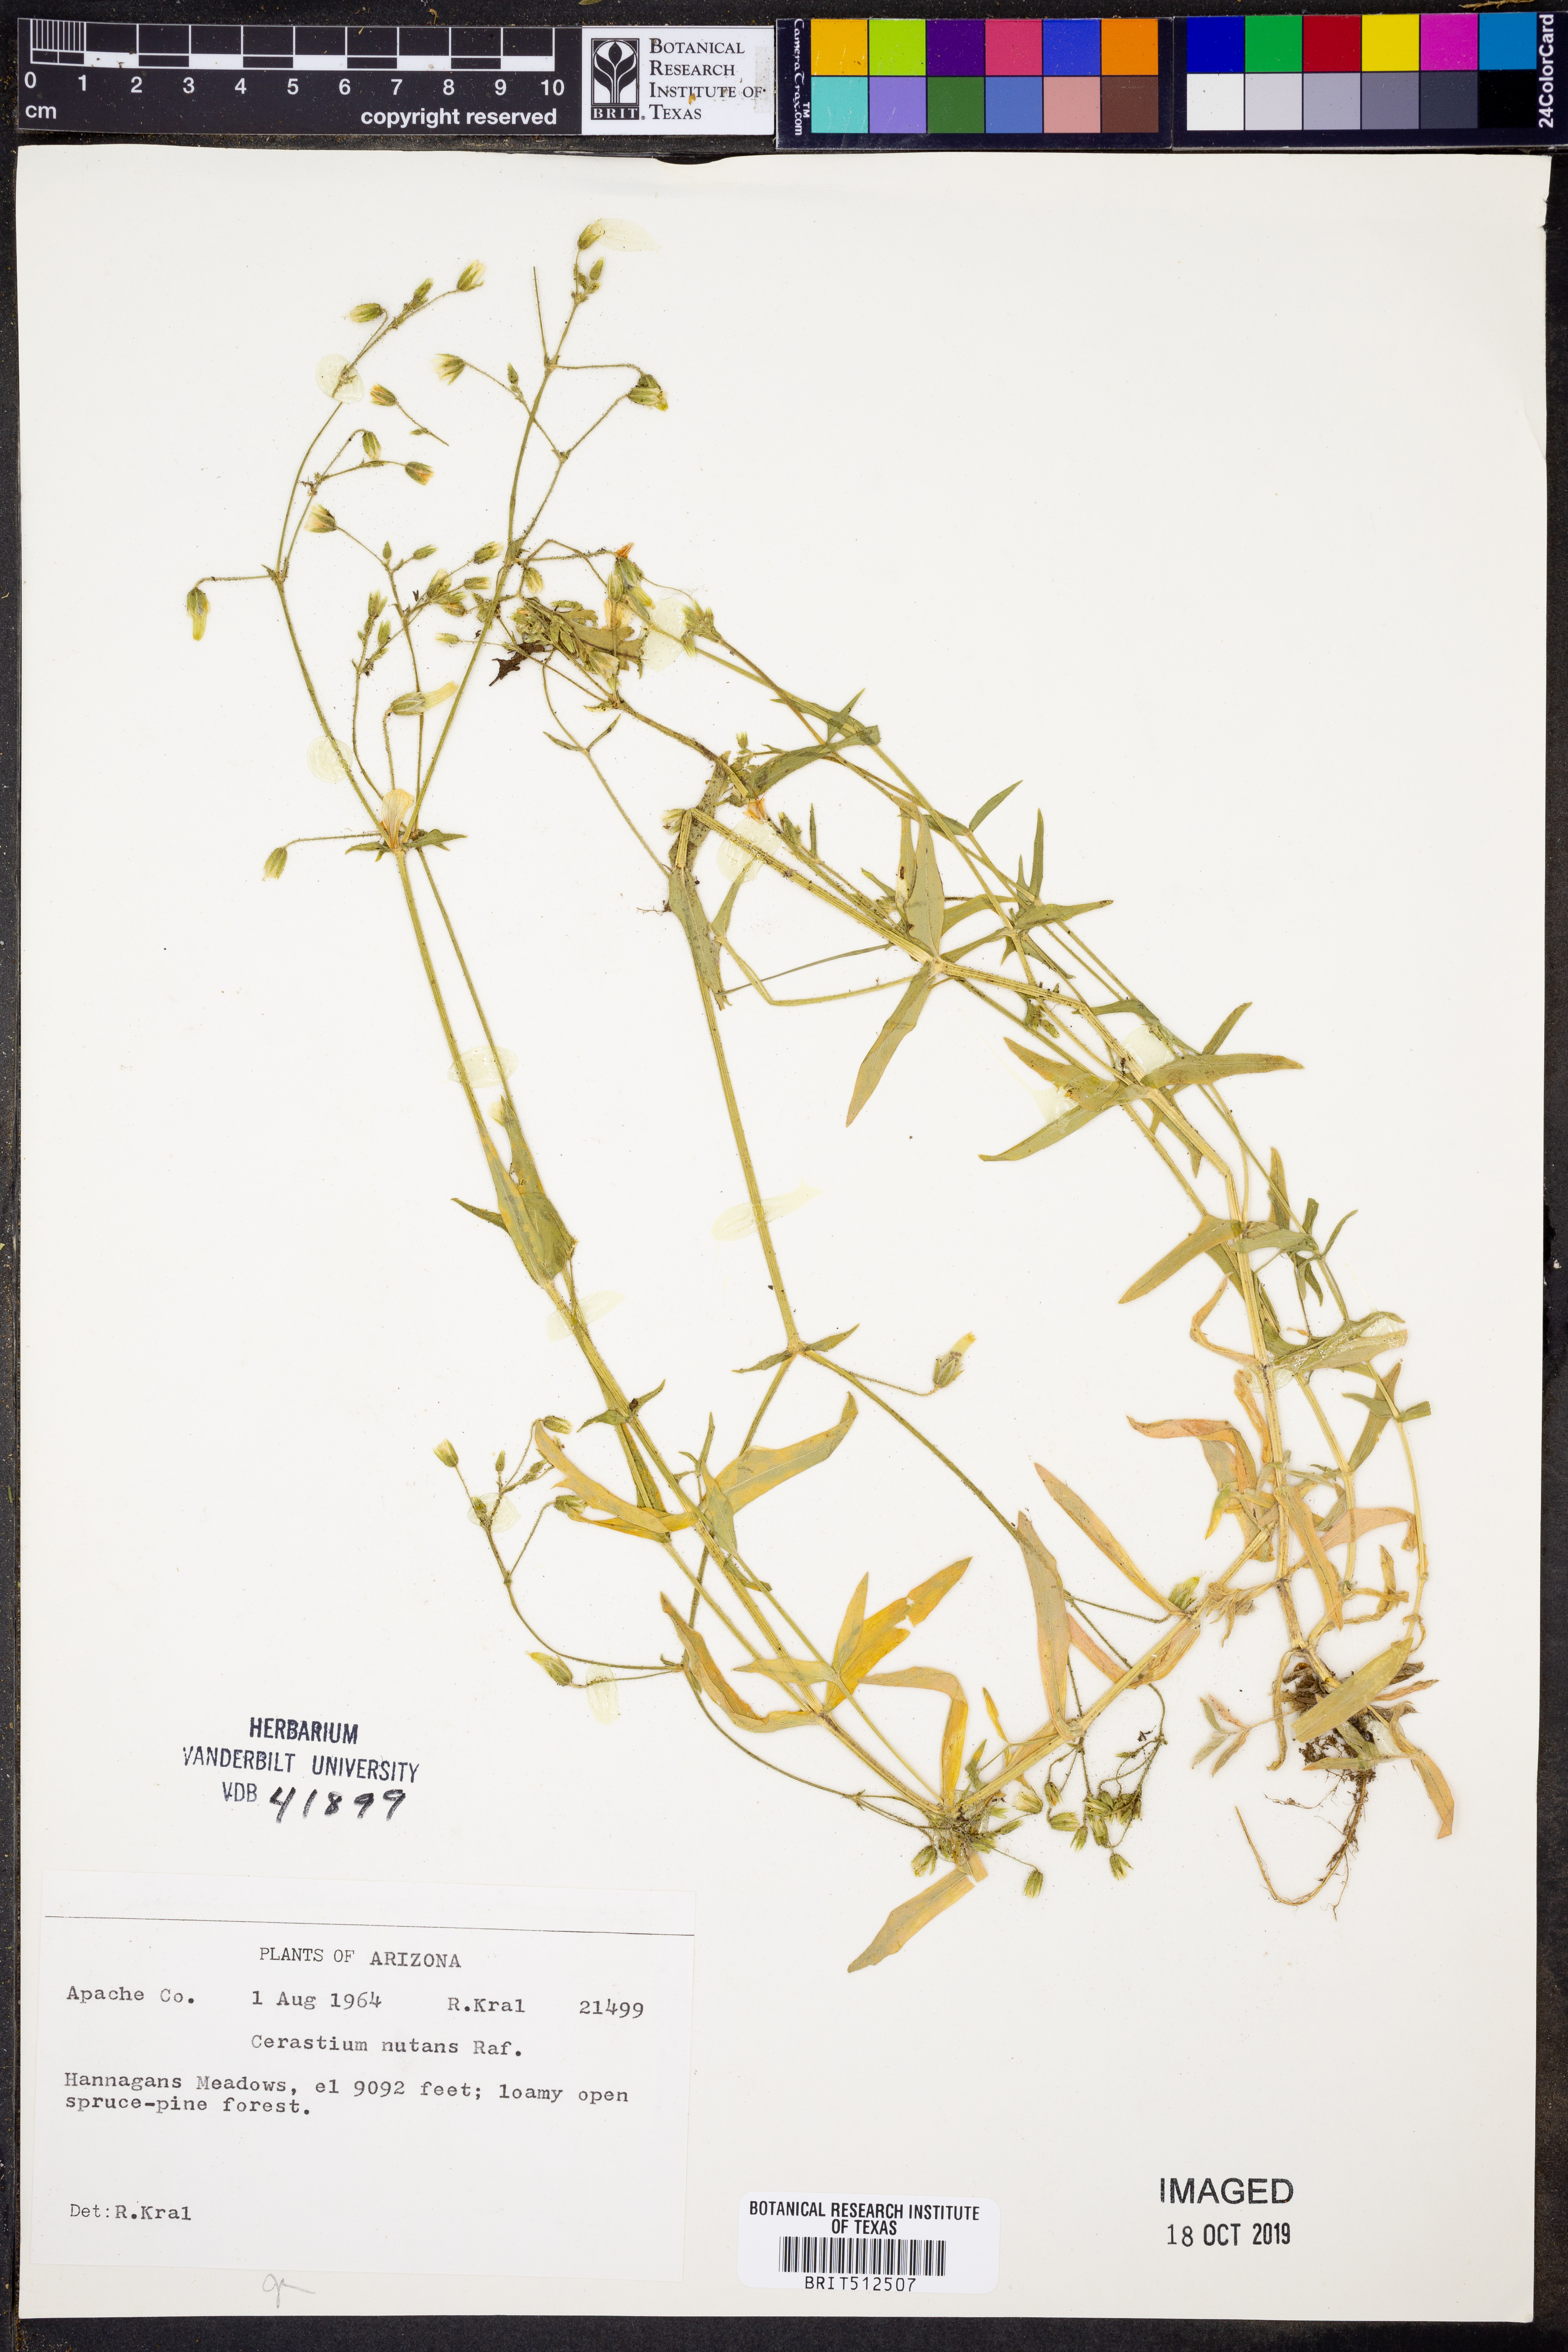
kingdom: Plantae
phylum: Tracheophyta
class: Magnoliopsida
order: Caryophyllales
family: Caryophyllaceae
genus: Cerastium
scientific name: Cerastium nutans
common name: Long-stalked chickweed
